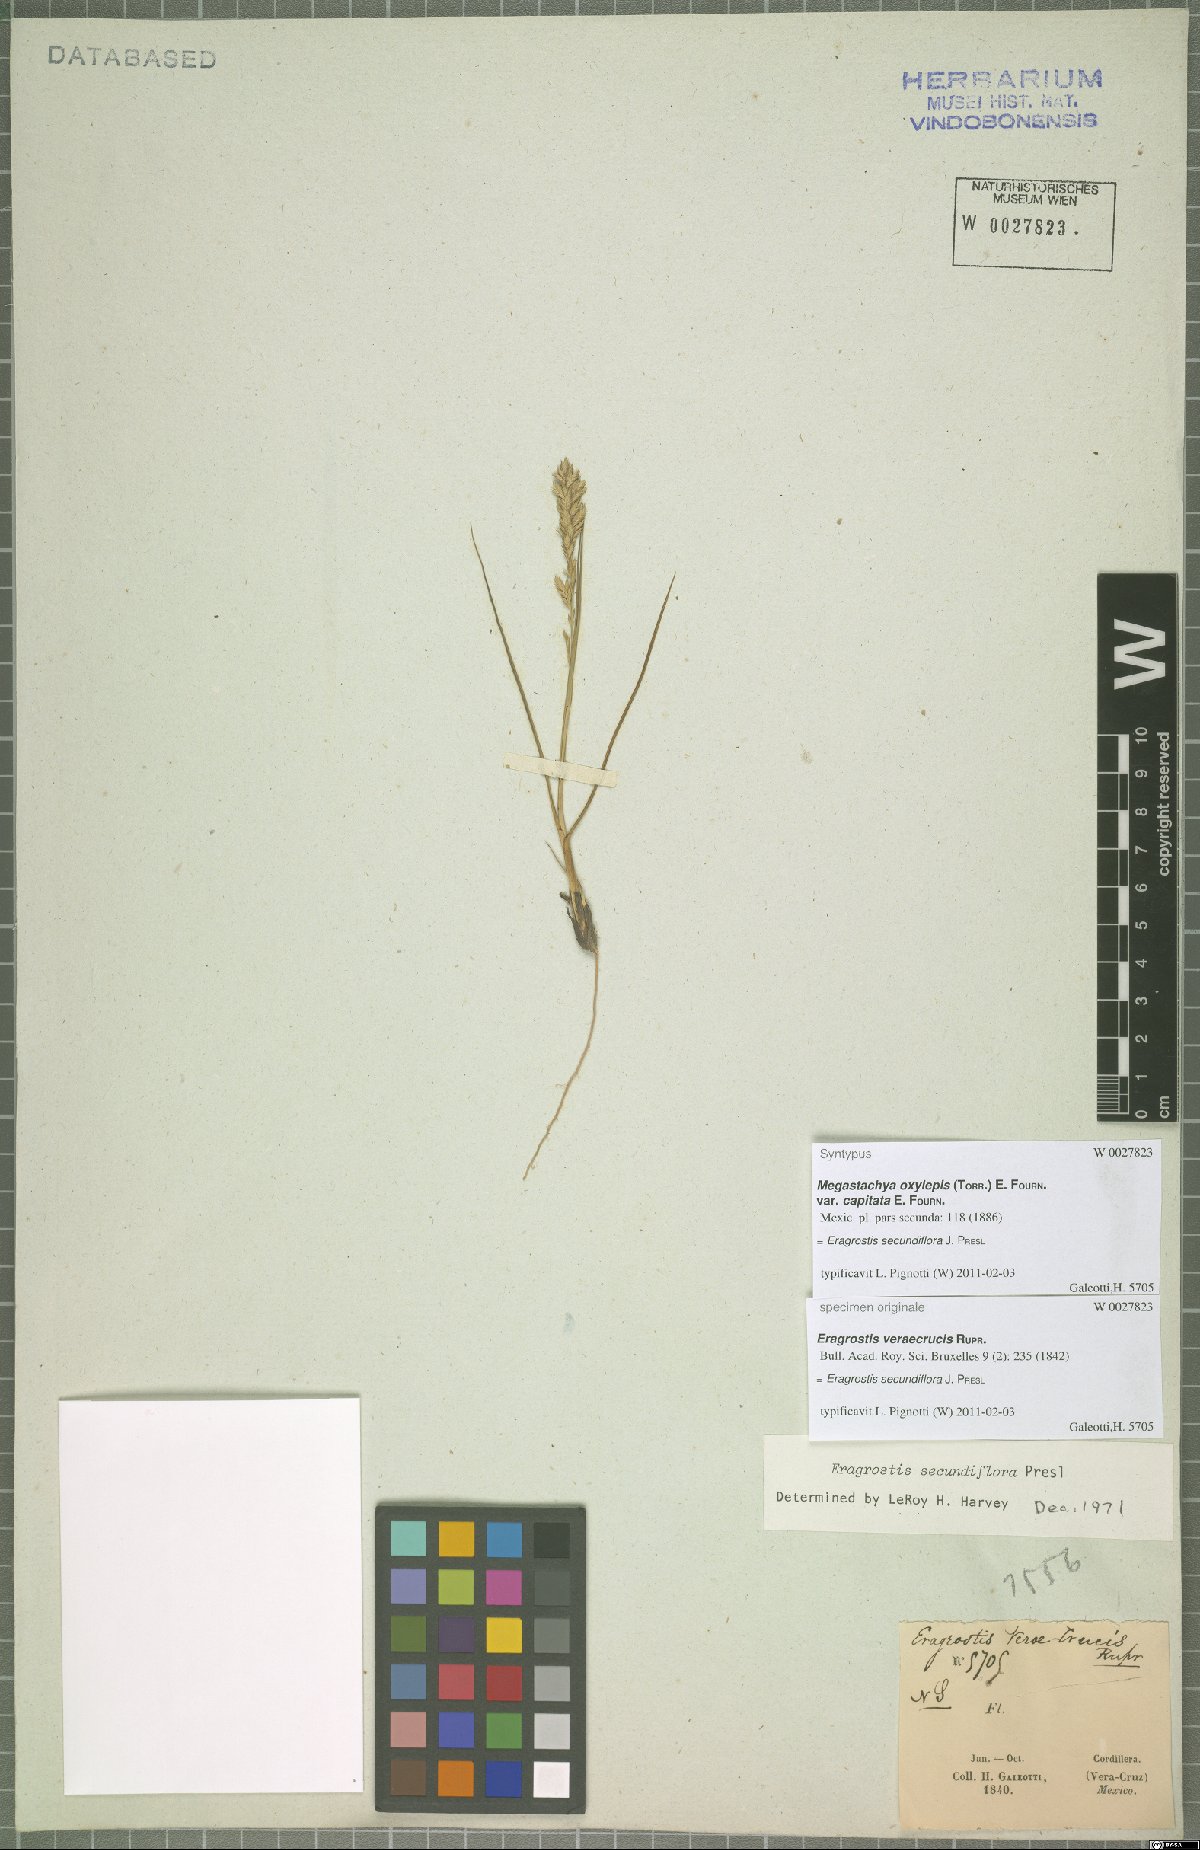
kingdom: Plantae
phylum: Tracheophyta
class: Liliopsida
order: Poales
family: Poaceae
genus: Eragrostis
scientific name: Eragrostis secundiflora
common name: Red love grass
